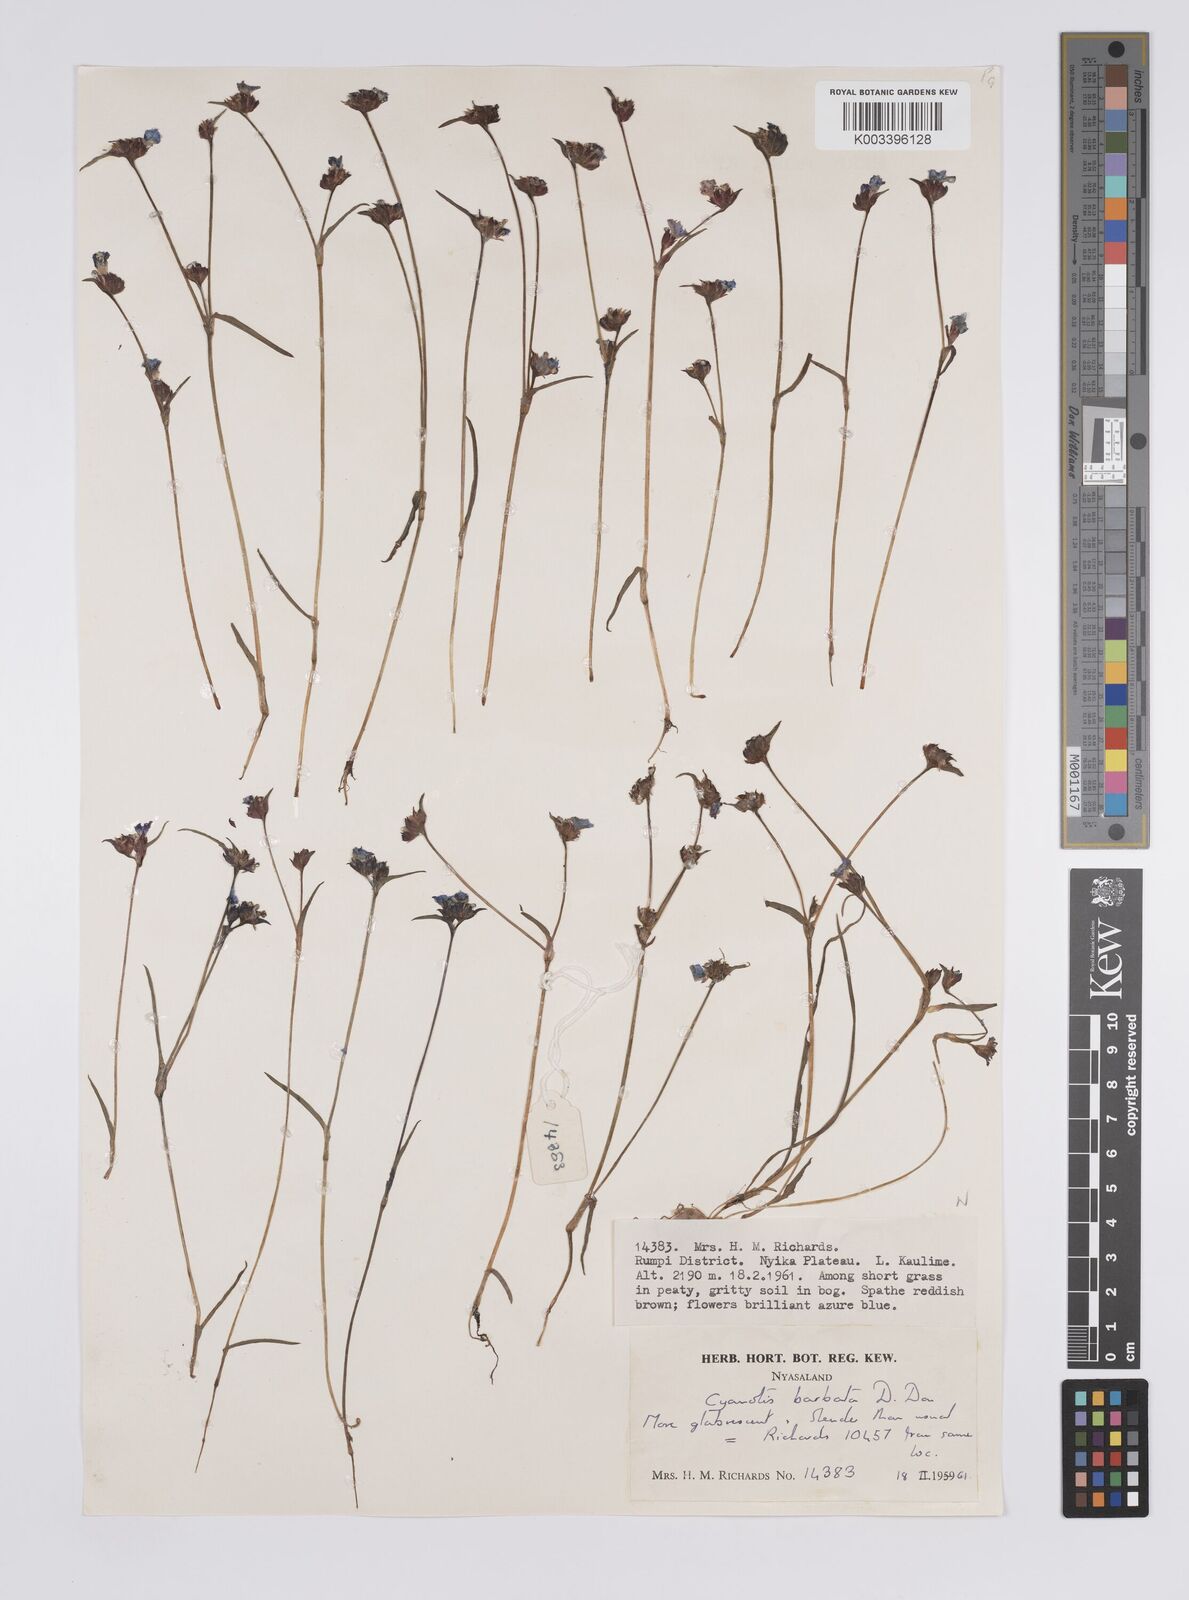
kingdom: Plantae
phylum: Tracheophyta
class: Liliopsida
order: Commelinales
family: Commelinaceae
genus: Cyanotis
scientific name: Cyanotis vaga
